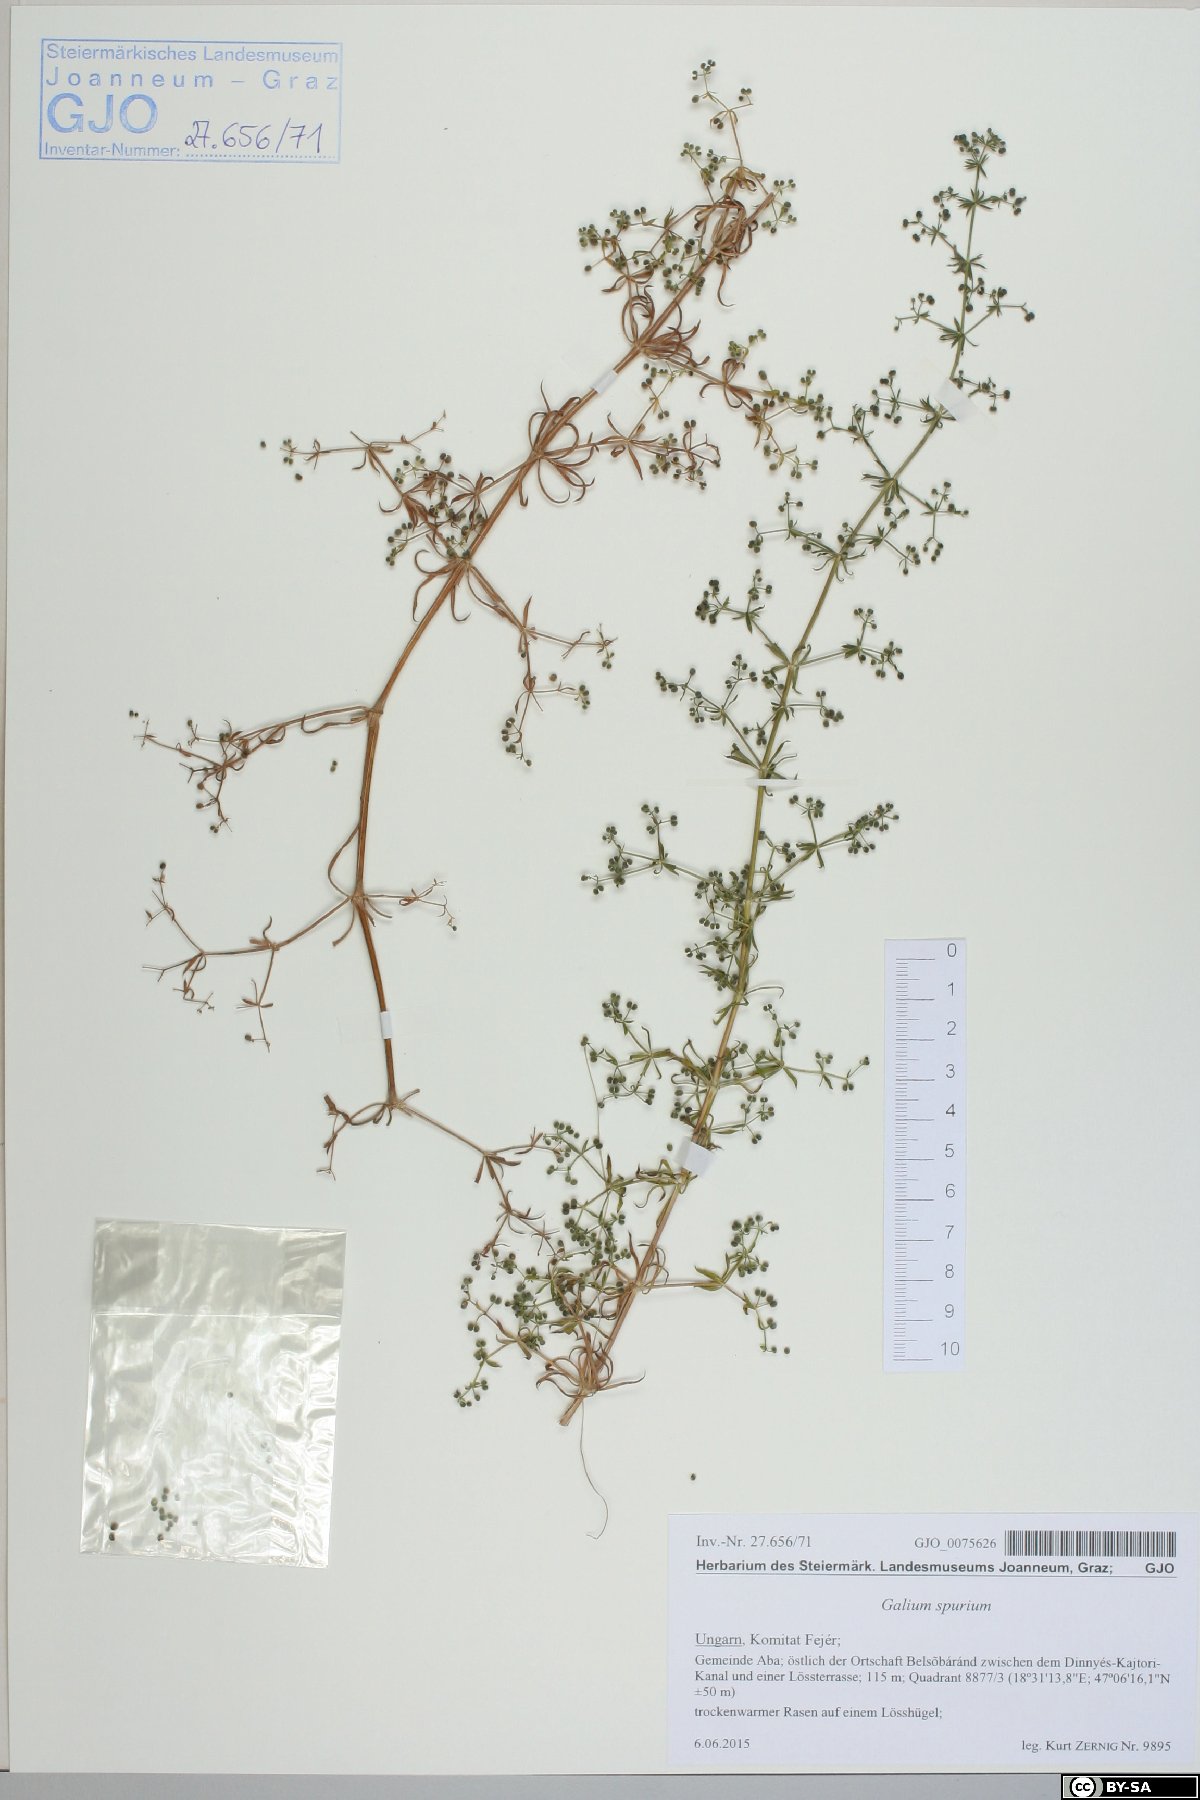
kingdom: Plantae
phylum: Tracheophyta
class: Magnoliopsida
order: Gentianales
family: Rubiaceae
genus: Galium
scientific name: Galium spurium
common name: False cleavers
